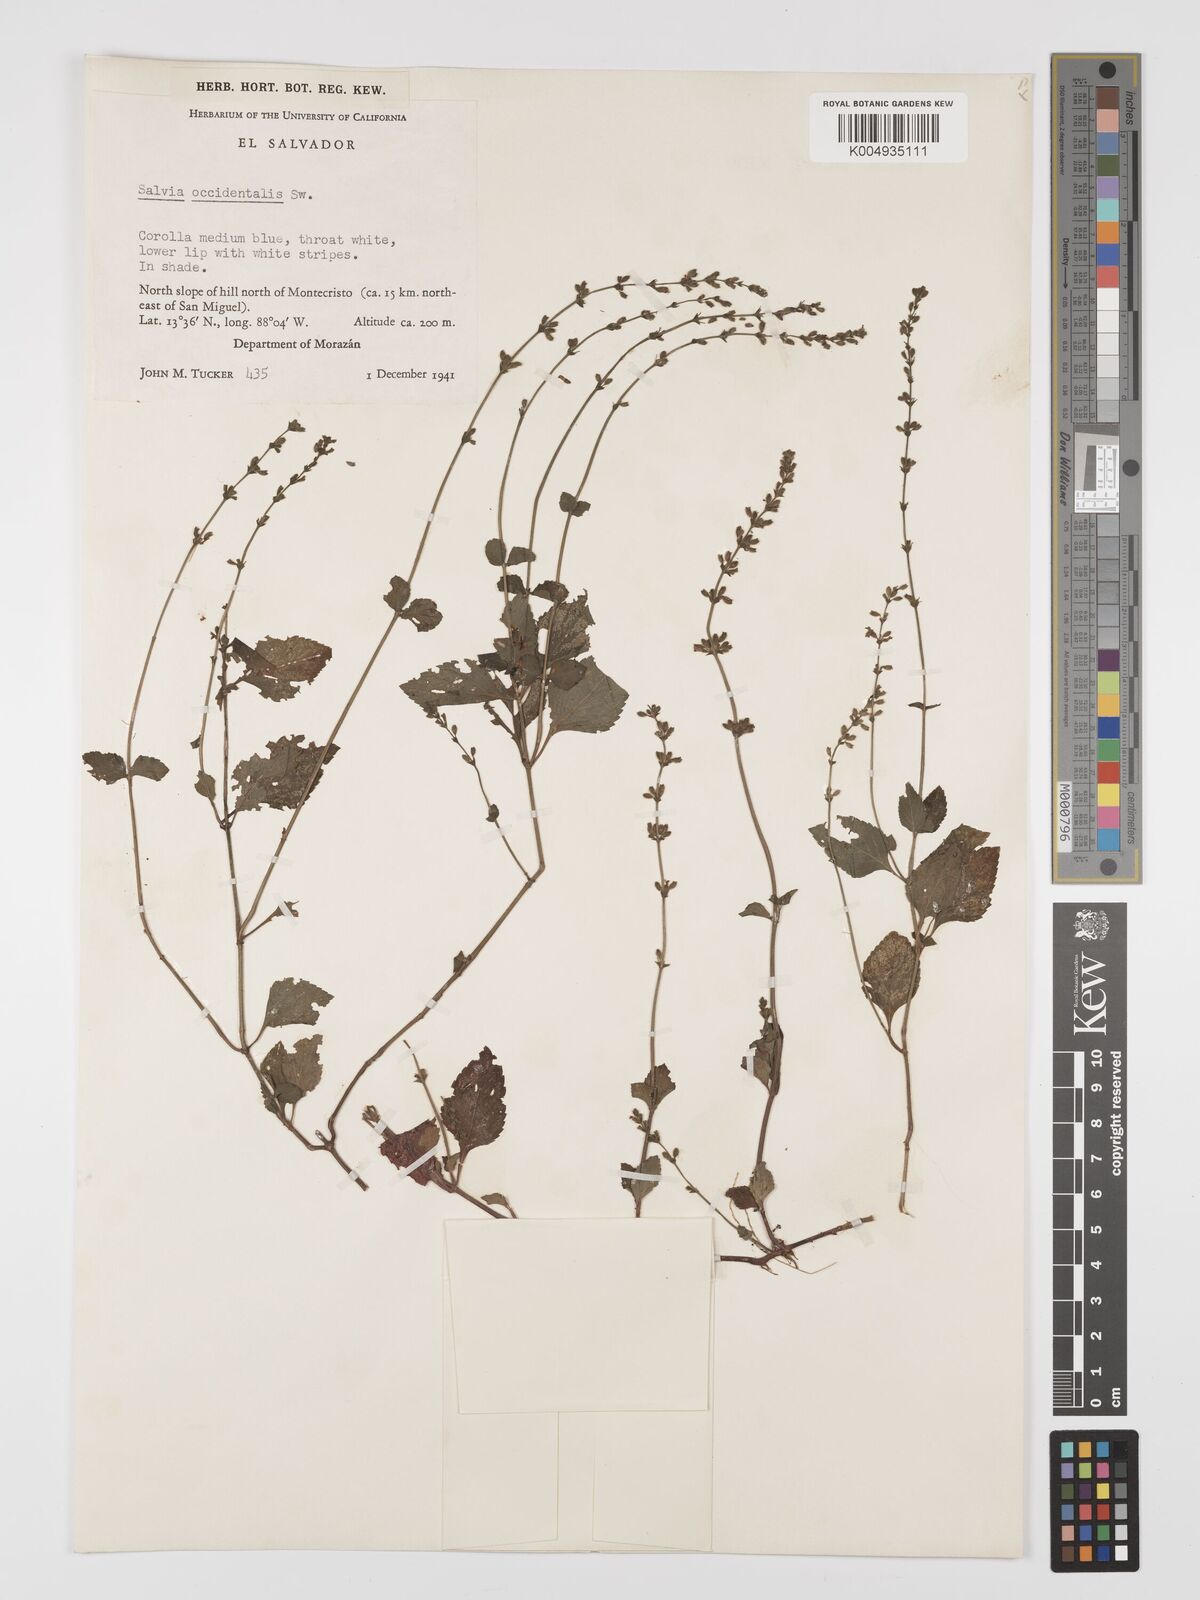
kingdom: Plantae
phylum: Tracheophyta
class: Magnoliopsida
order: Lamiales
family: Lamiaceae
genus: Salvia
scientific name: Salvia occidentalis
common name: West indian sage
